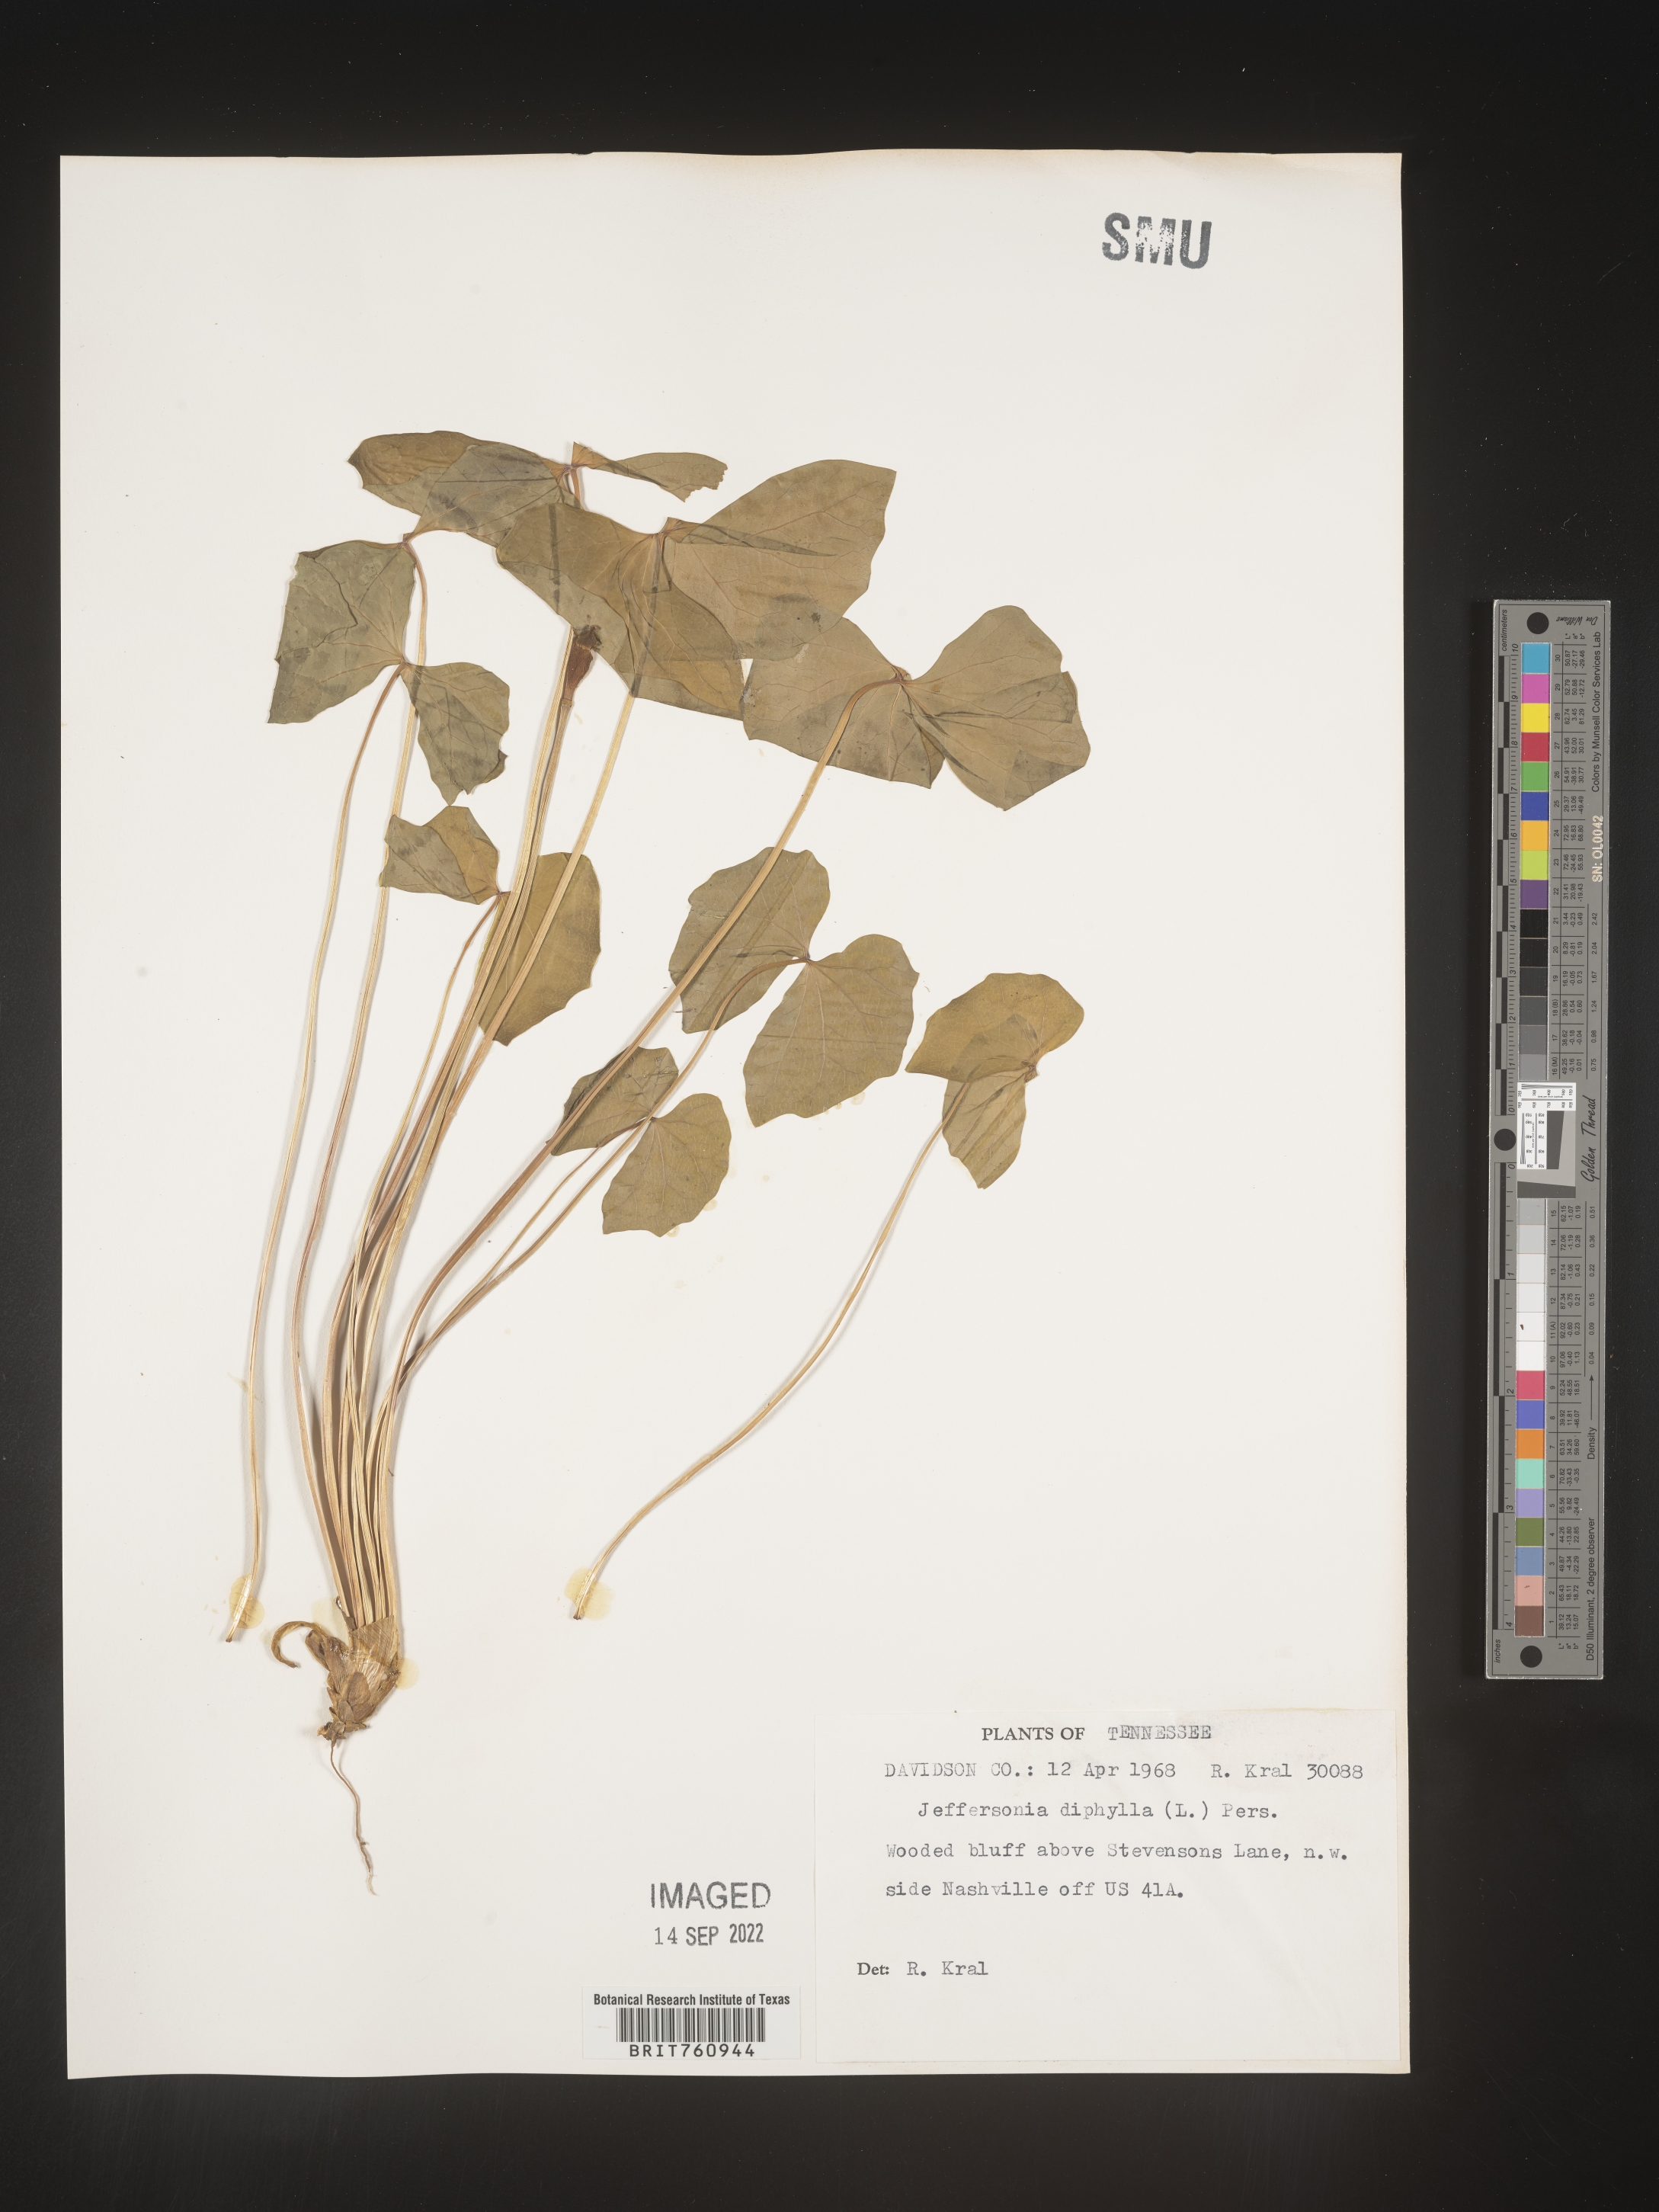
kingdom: Plantae
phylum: Tracheophyta
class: Magnoliopsida
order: Ranunculales
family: Berberidaceae
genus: Jeffersonia
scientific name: Jeffersonia
